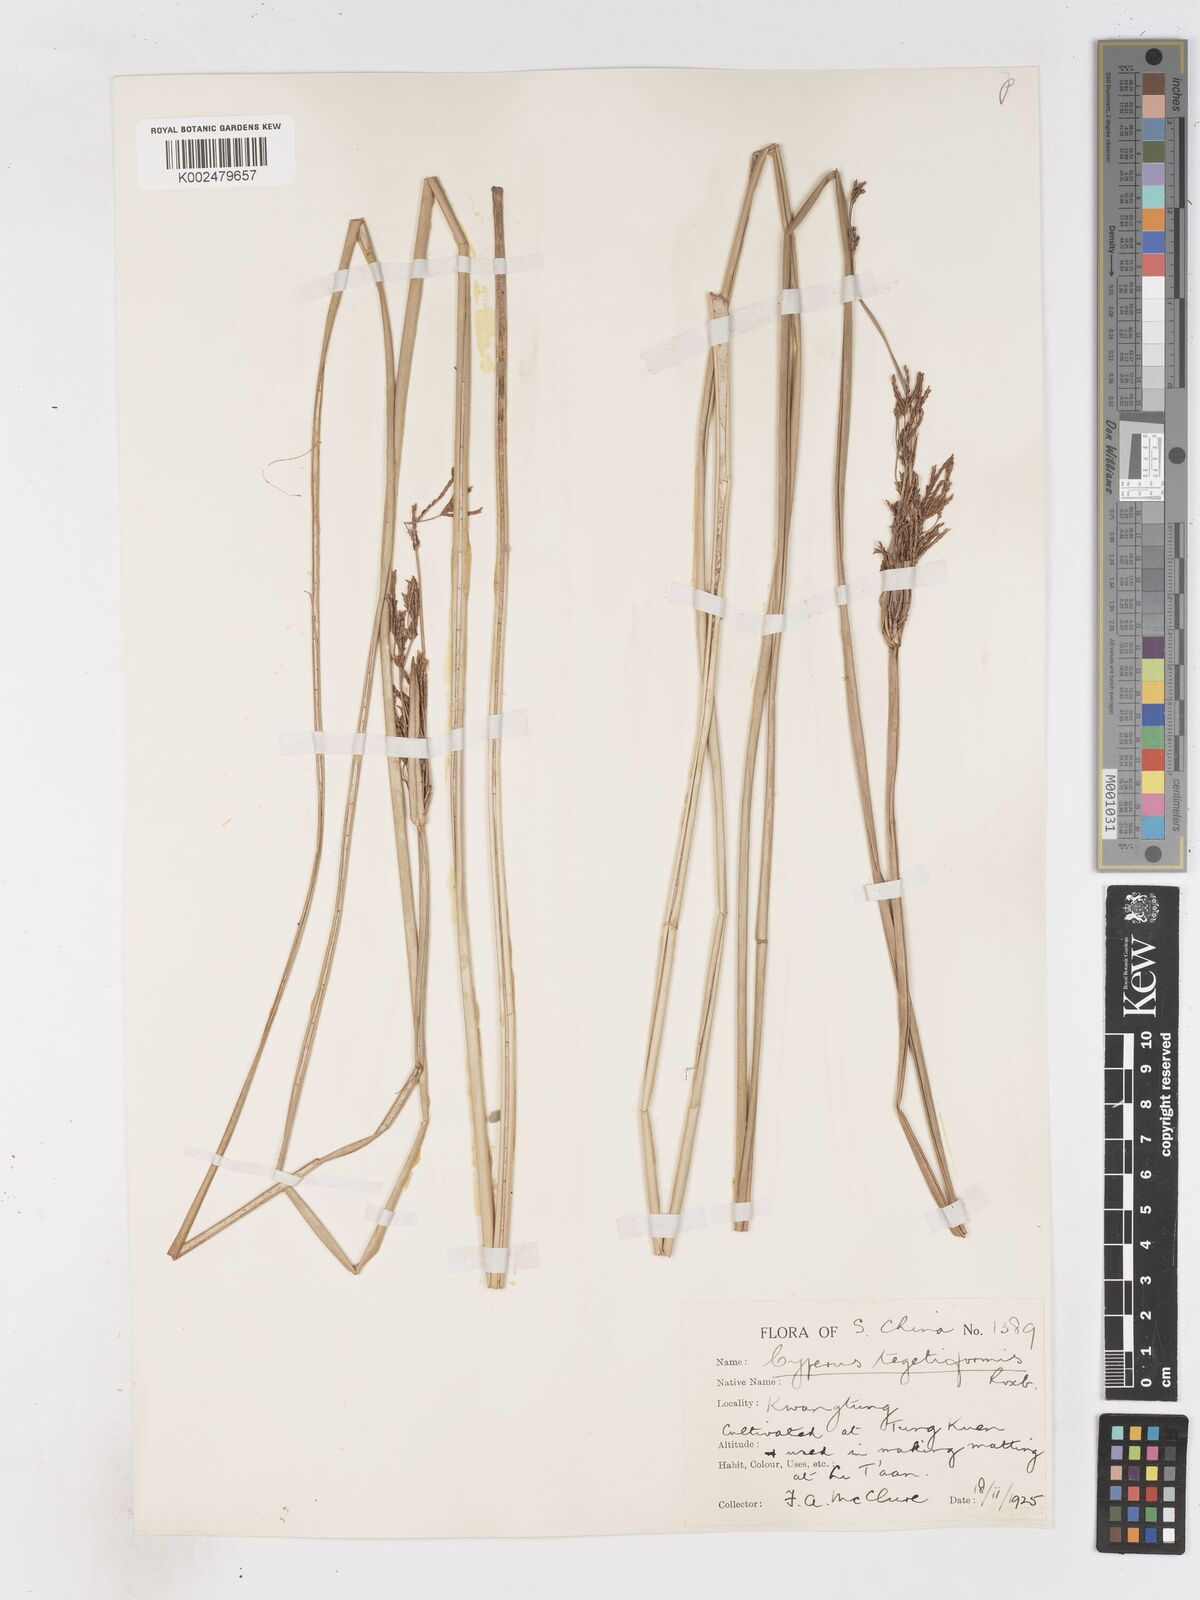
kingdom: Plantae
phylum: Tracheophyta
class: Liliopsida
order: Poales
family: Cyperaceae
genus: Cyperus
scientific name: Cyperus malaccensis
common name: Shichito matgrass
